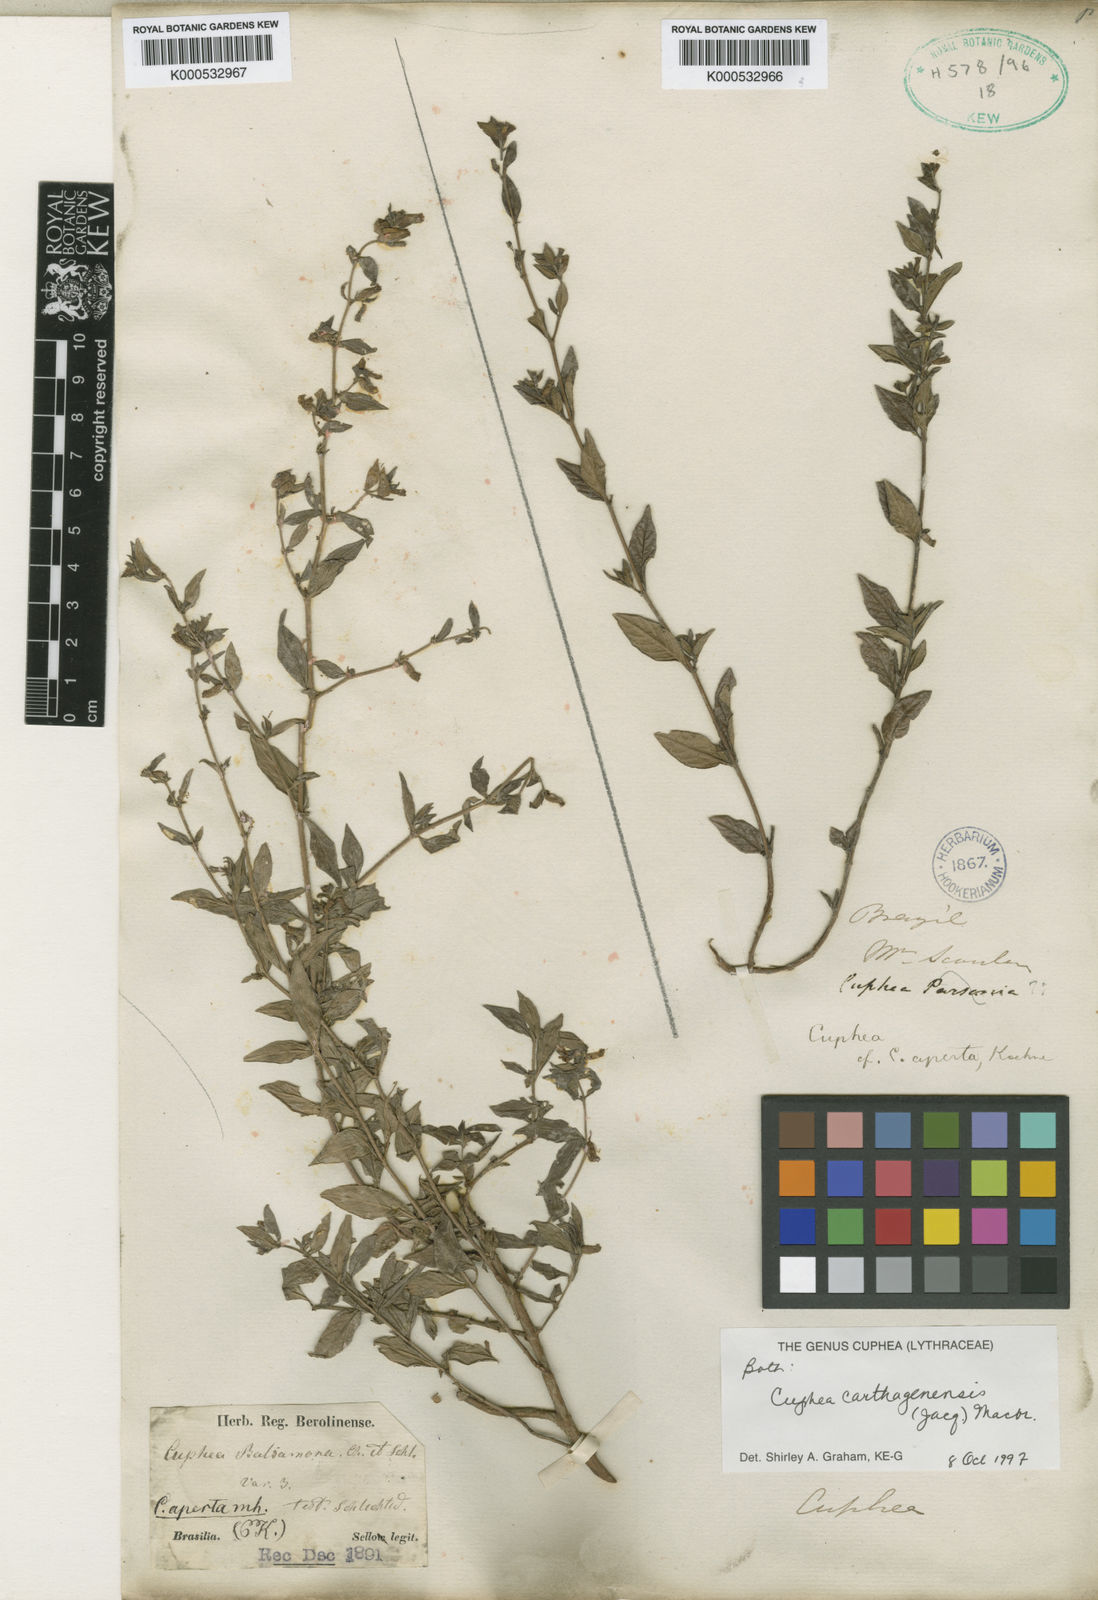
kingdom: Plantae
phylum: Tracheophyta
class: Magnoliopsida
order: Myrtales
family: Lythraceae
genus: Cuphea
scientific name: Cuphea carthagenensis
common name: Colombian waxweed
